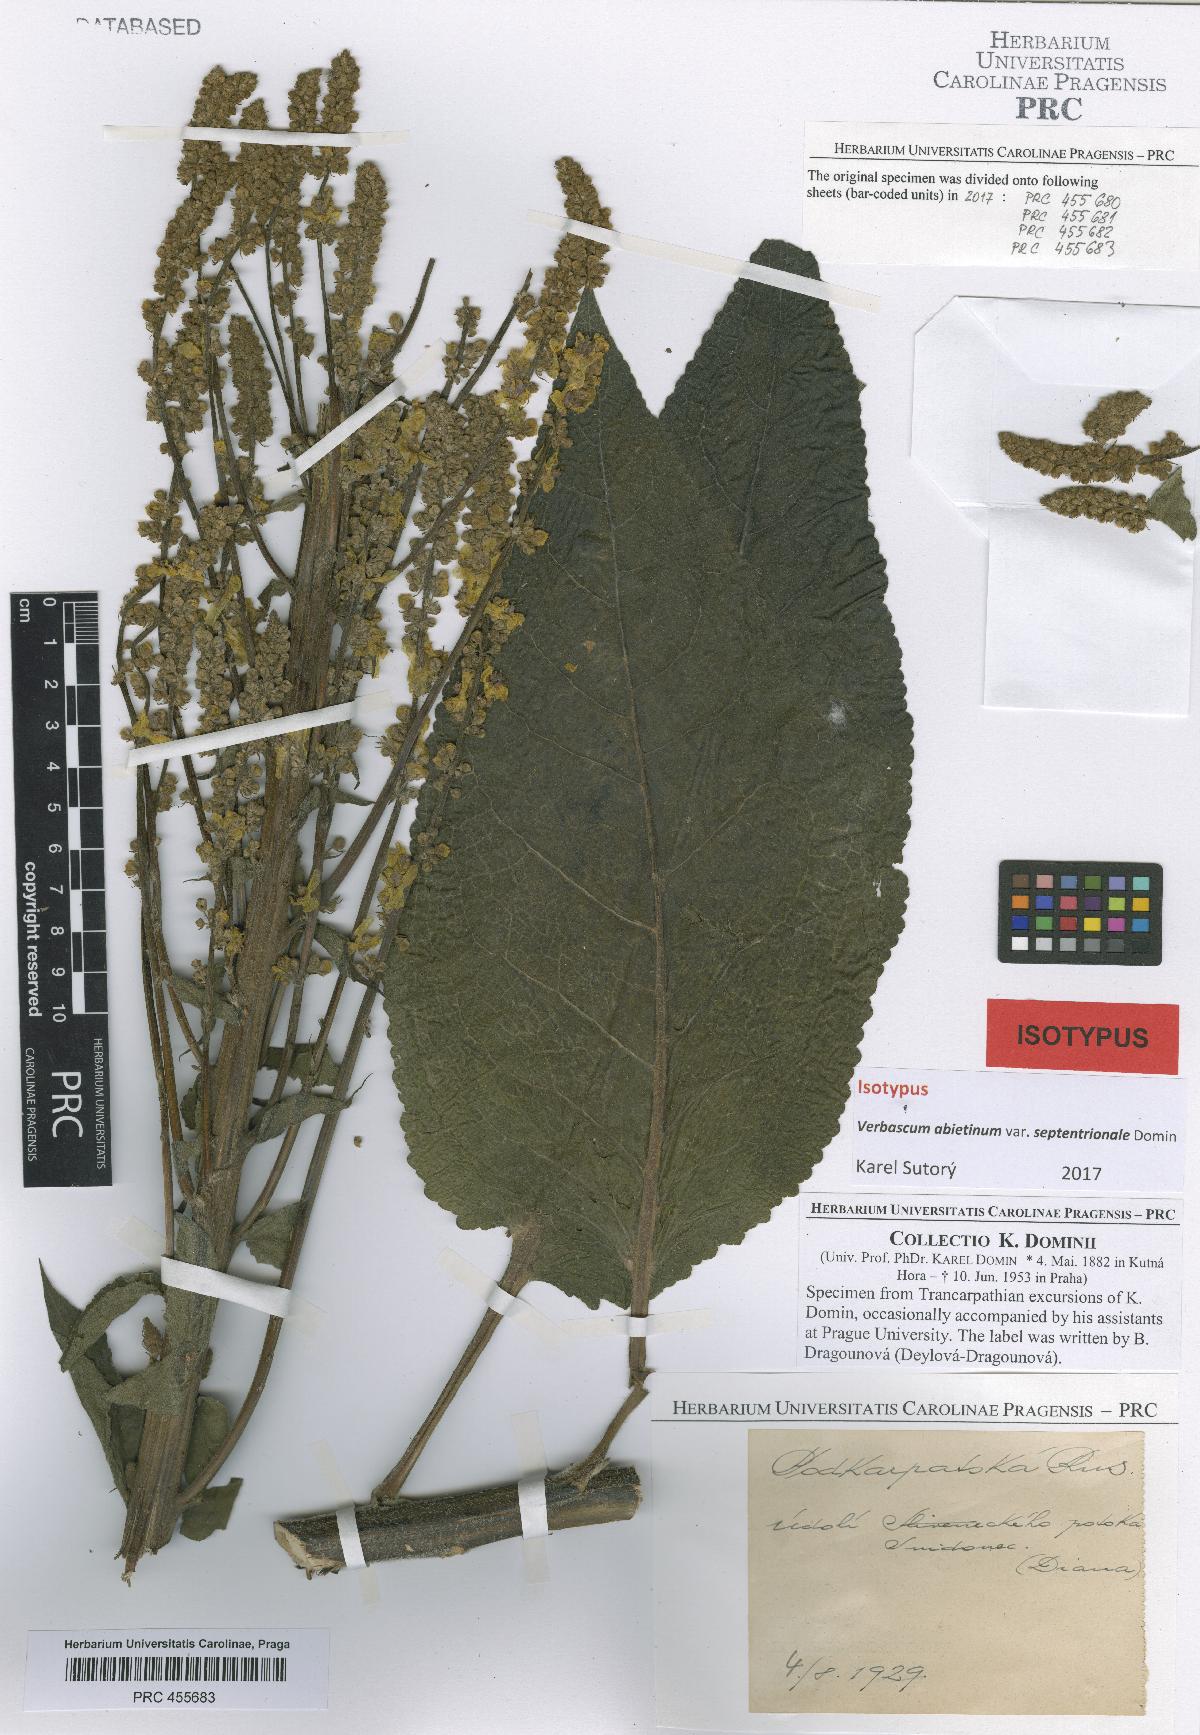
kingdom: Plantae
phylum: Tracheophyta
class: Magnoliopsida
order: Lamiales
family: Scrophulariaceae
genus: Verbascum
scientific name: Verbascum nigrum
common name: Dark mullein
